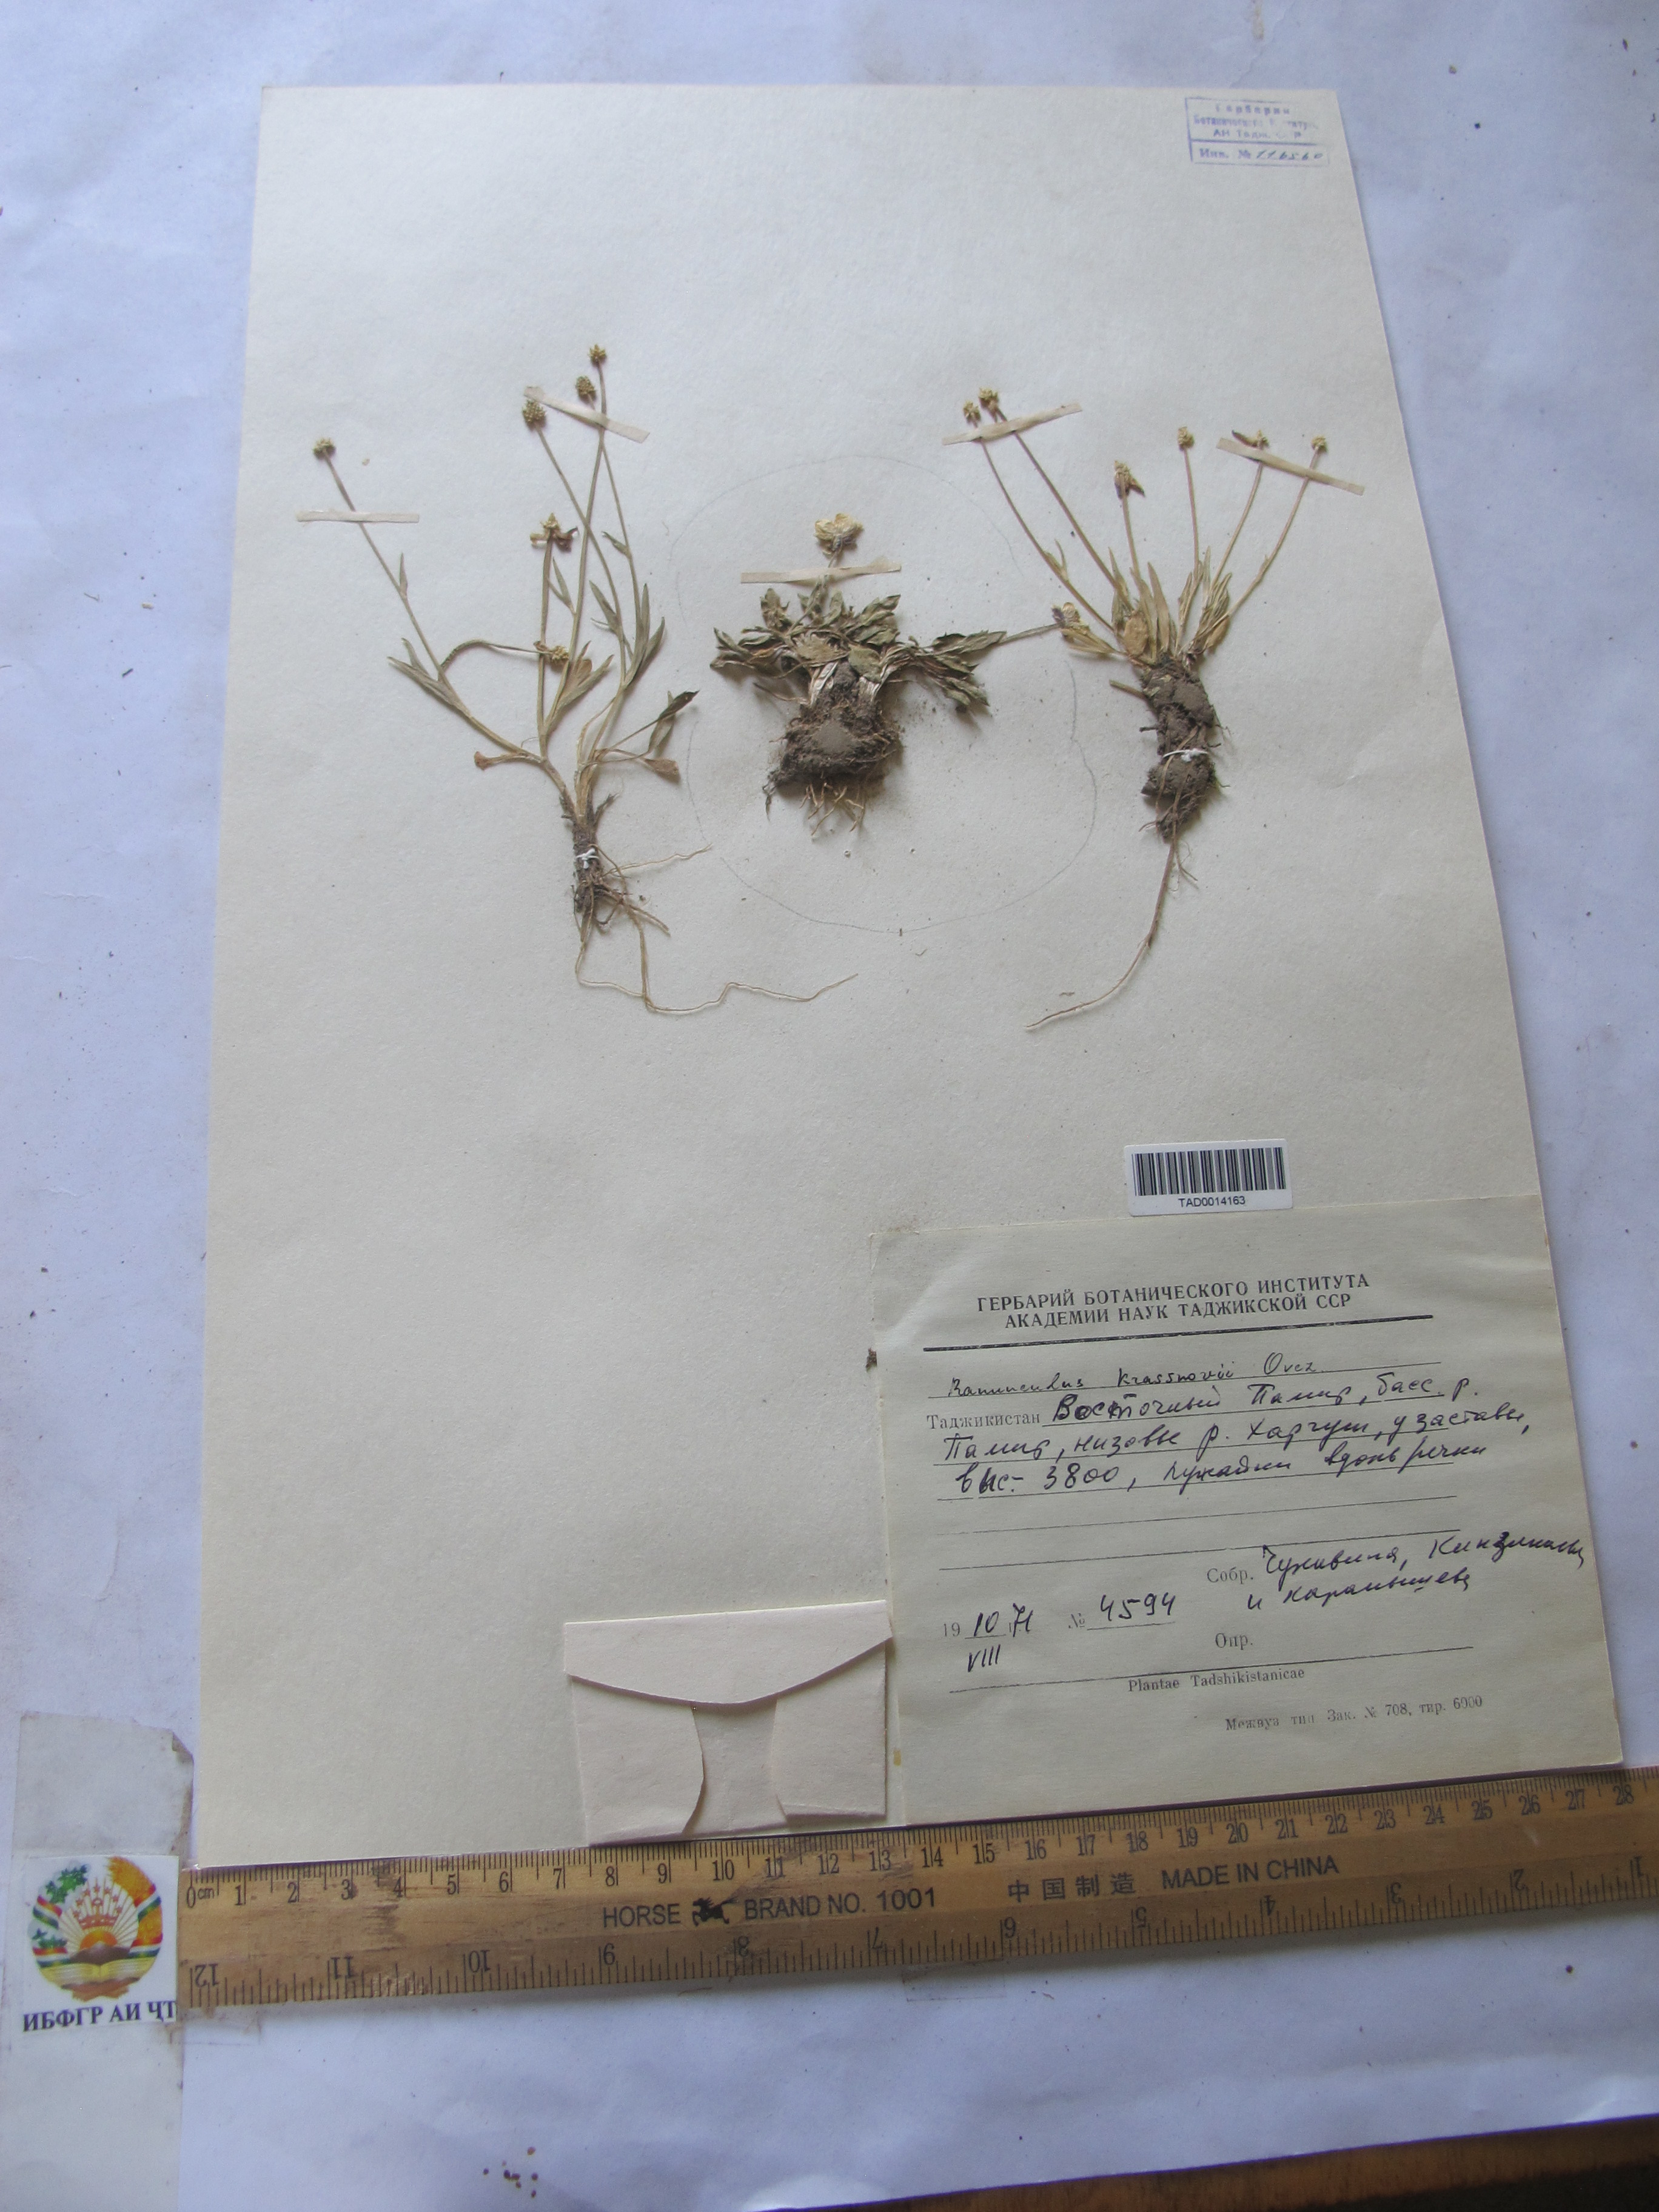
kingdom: Plantae
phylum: Tracheophyta
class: Magnoliopsida
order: Ranunculales
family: Ranunculaceae
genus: Ranunculus
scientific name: Ranunculus krassnovii
